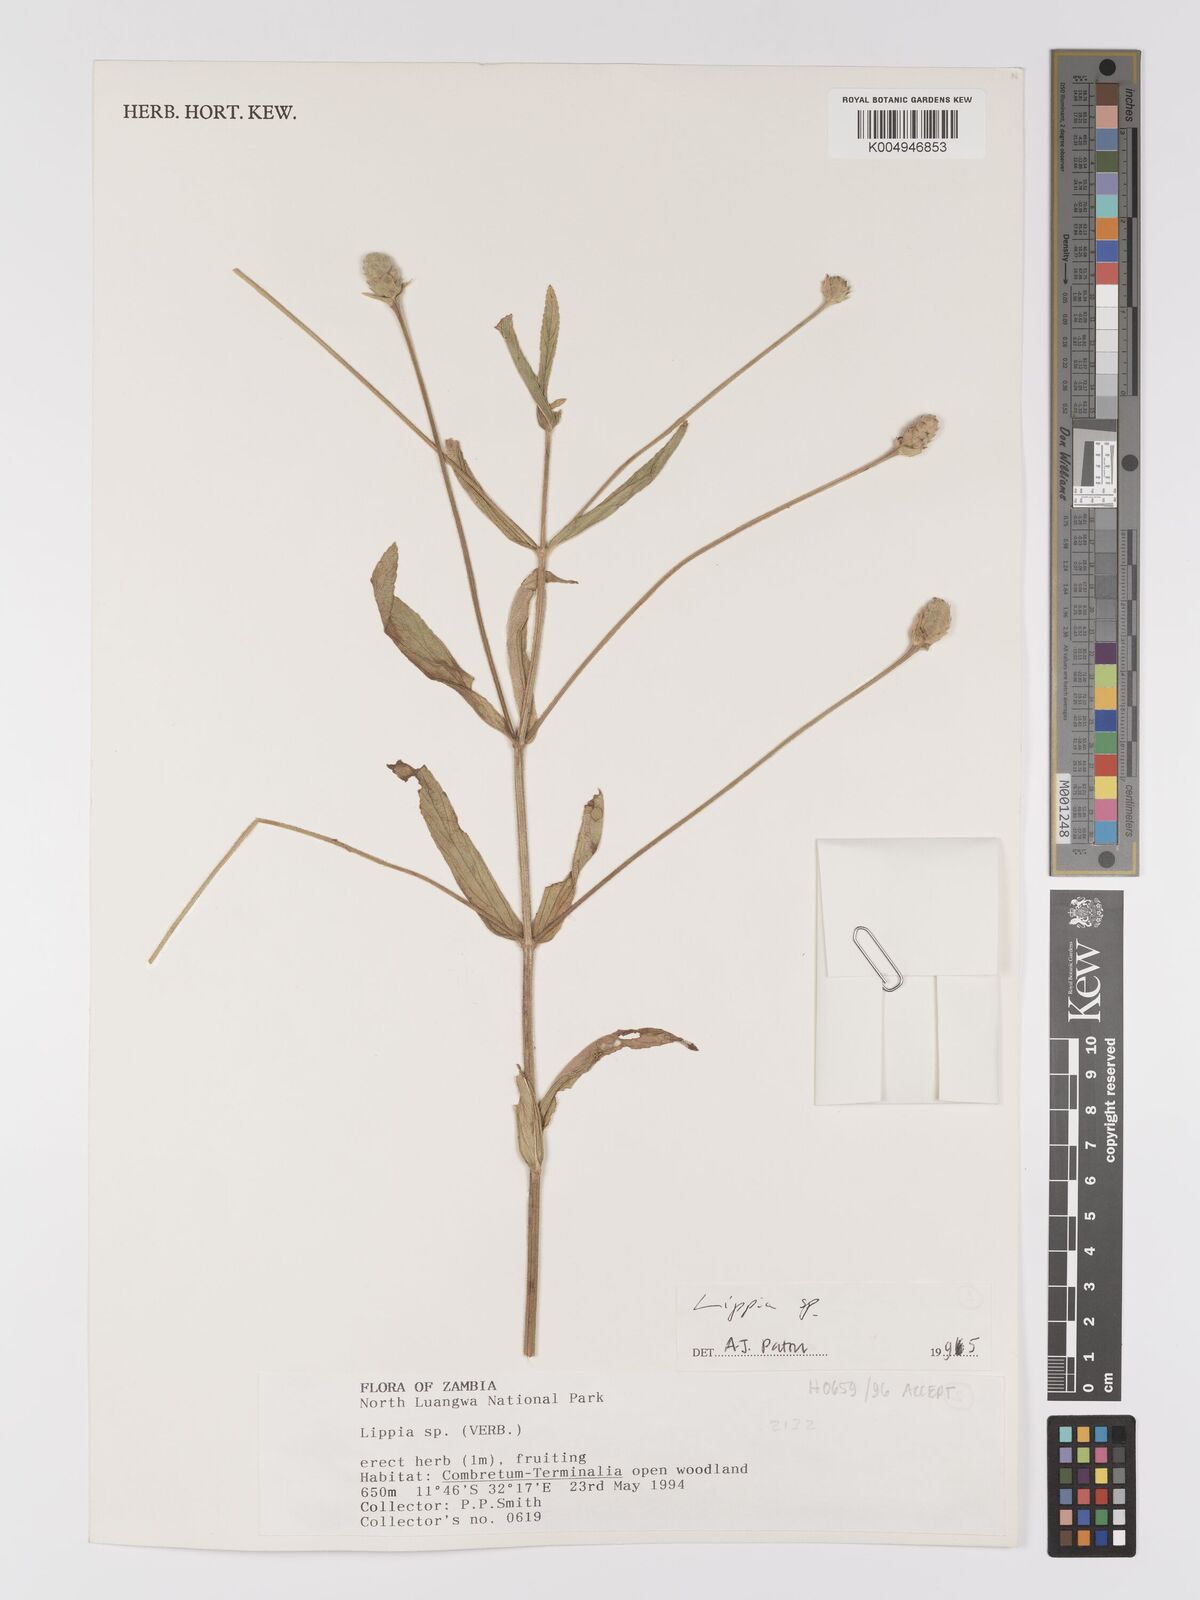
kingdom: Plantae
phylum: Tracheophyta
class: Magnoliopsida
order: Lamiales
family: Verbenaceae
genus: Lippia
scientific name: Lippia baumii
